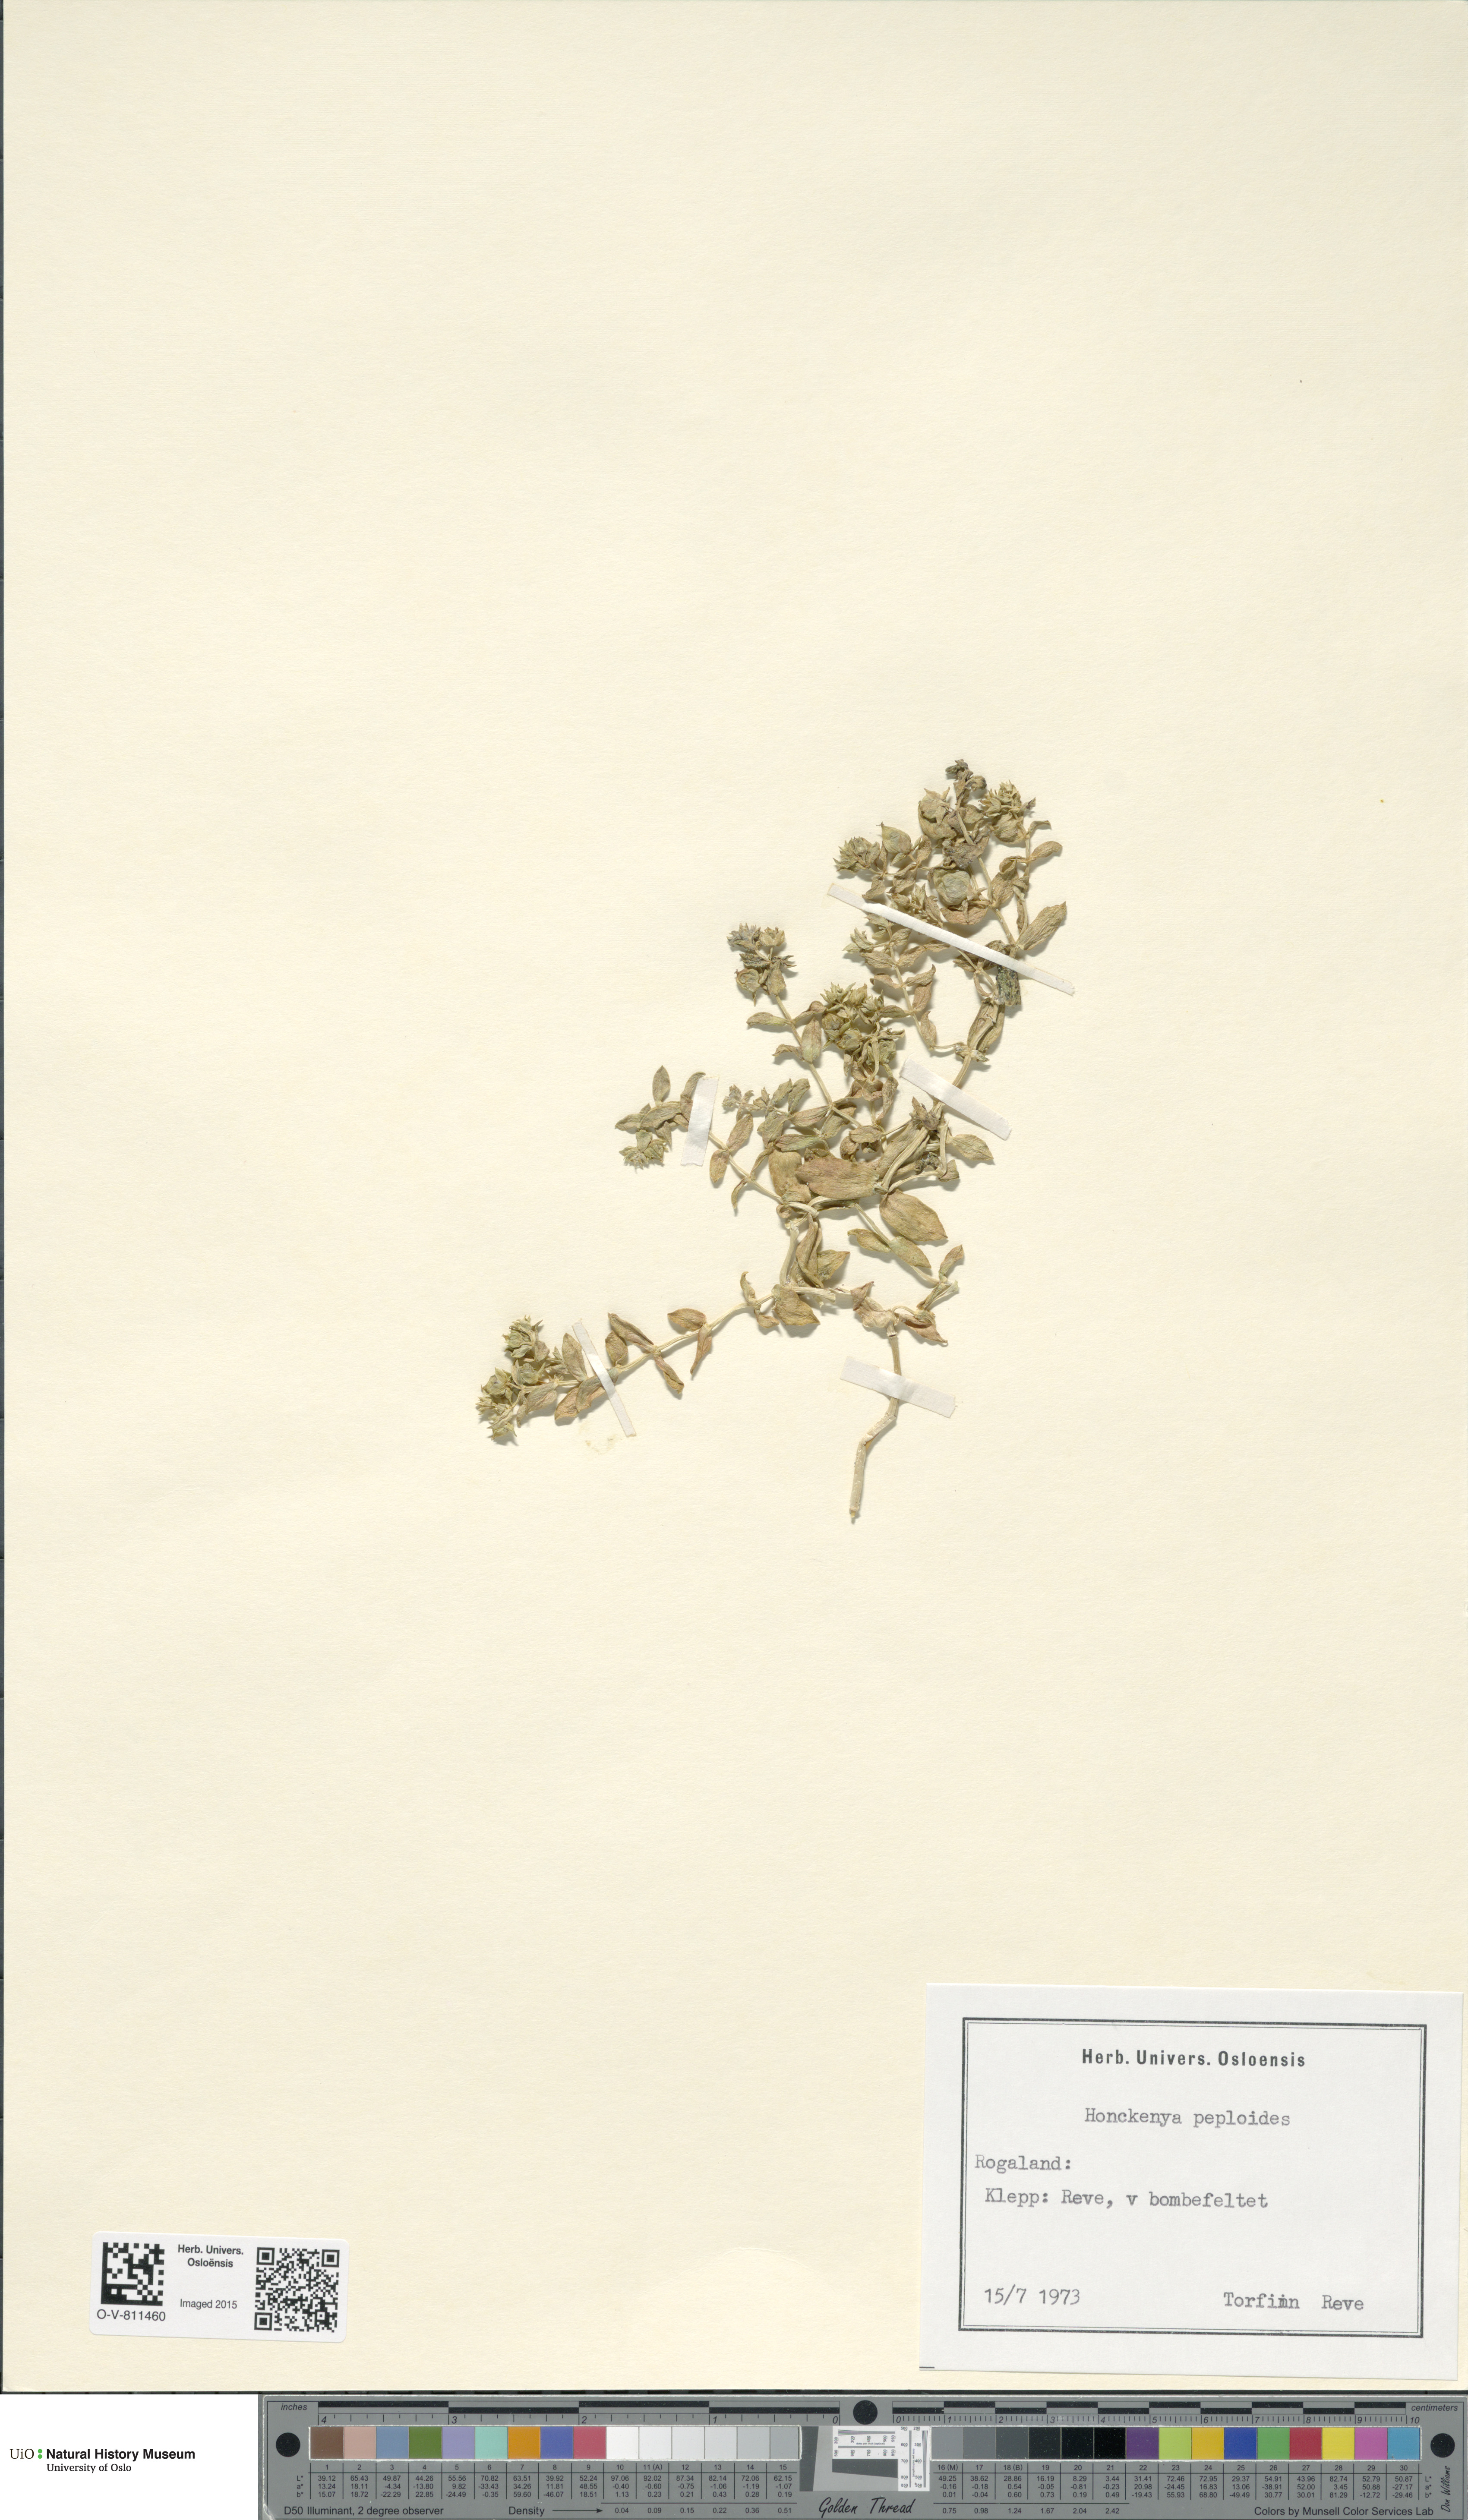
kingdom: Plantae
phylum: Tracheophyta
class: Magnoliopsida
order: Caryophyllales
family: Caryophyllaceae
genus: Honckenya
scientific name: Honckenya peploides
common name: Sea sandwort
